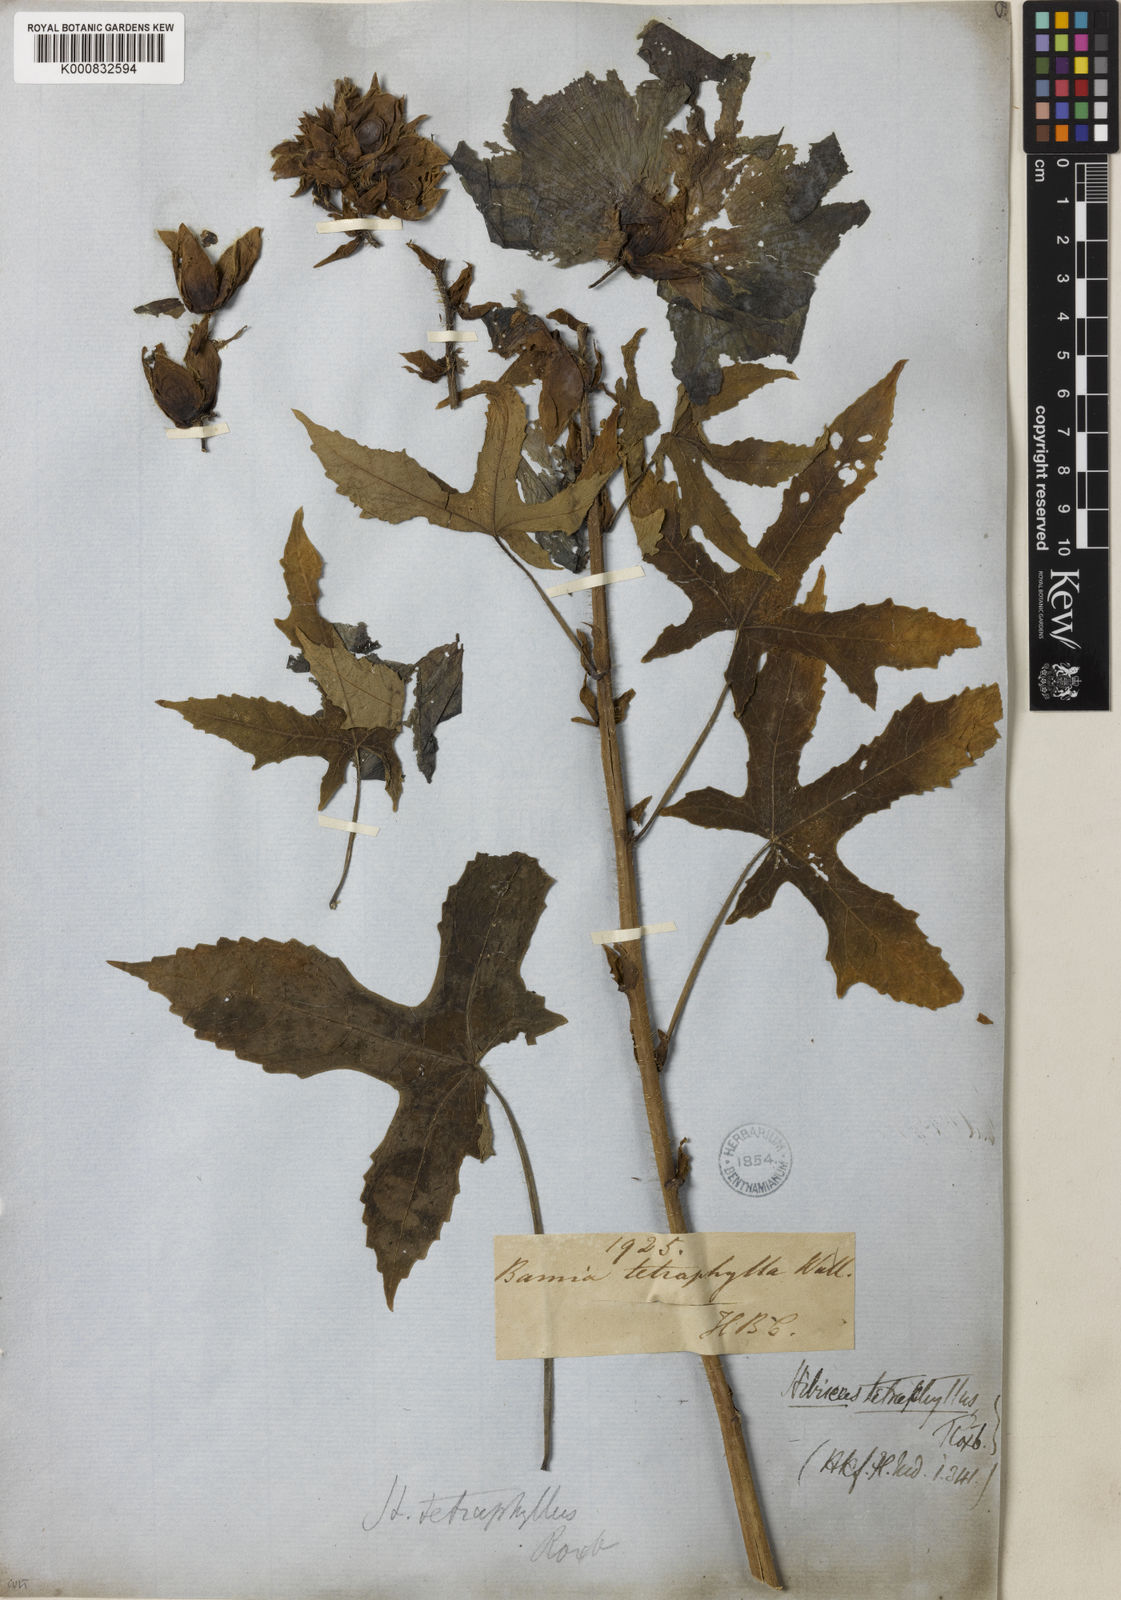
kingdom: Plantae
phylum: Tracheophyta
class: Magnoliopsida
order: Malvales
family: Malvaceae
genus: Abelmoschus
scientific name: Abelmoschus manihot
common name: Sunset muskmallow
